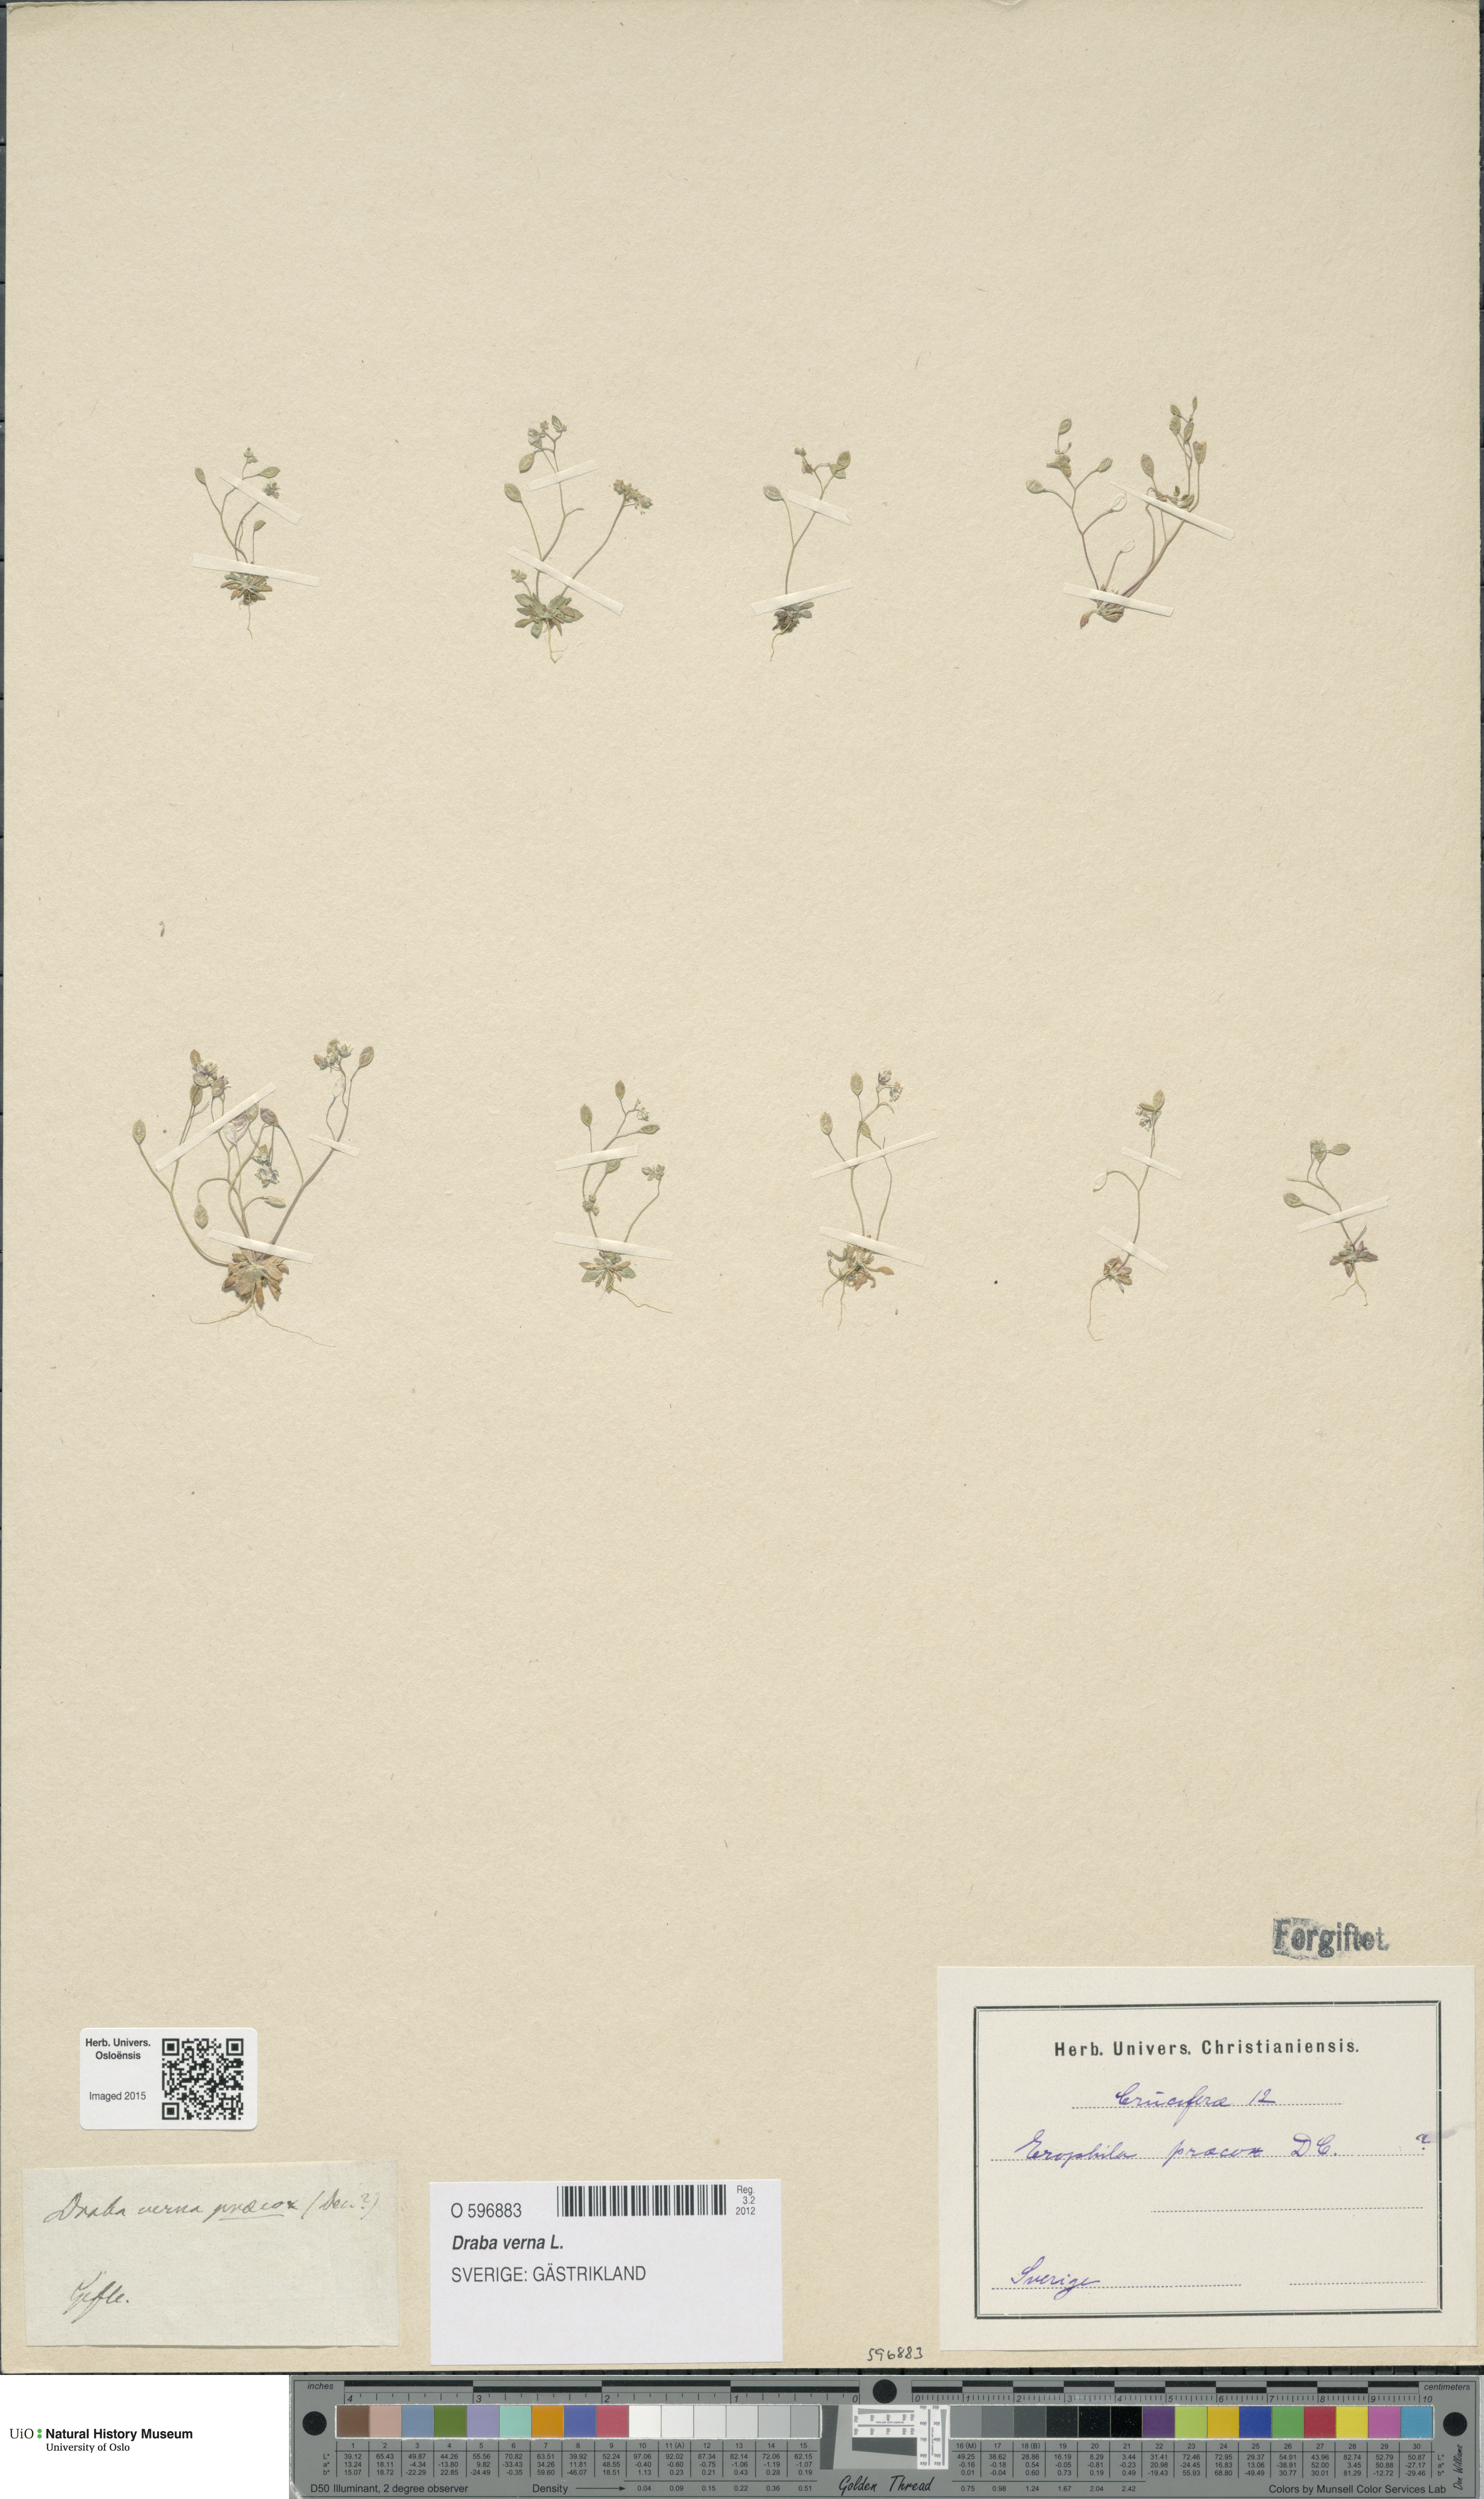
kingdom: Plantae
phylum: Tracheophyta
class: Magnoliopsida
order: Brassicales
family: Brassicaceae
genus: Draba
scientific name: Draba verna
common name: Spring draba
